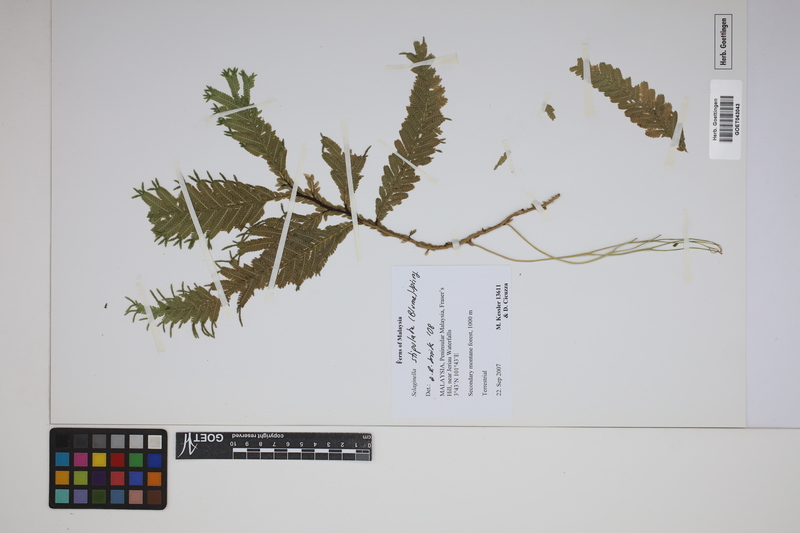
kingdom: Plantae
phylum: Tracheophyta
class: Lycopodiopsida
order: Selaginellales
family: Selaginellaceae
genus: Selaginella
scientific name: Selaginella stipulata
